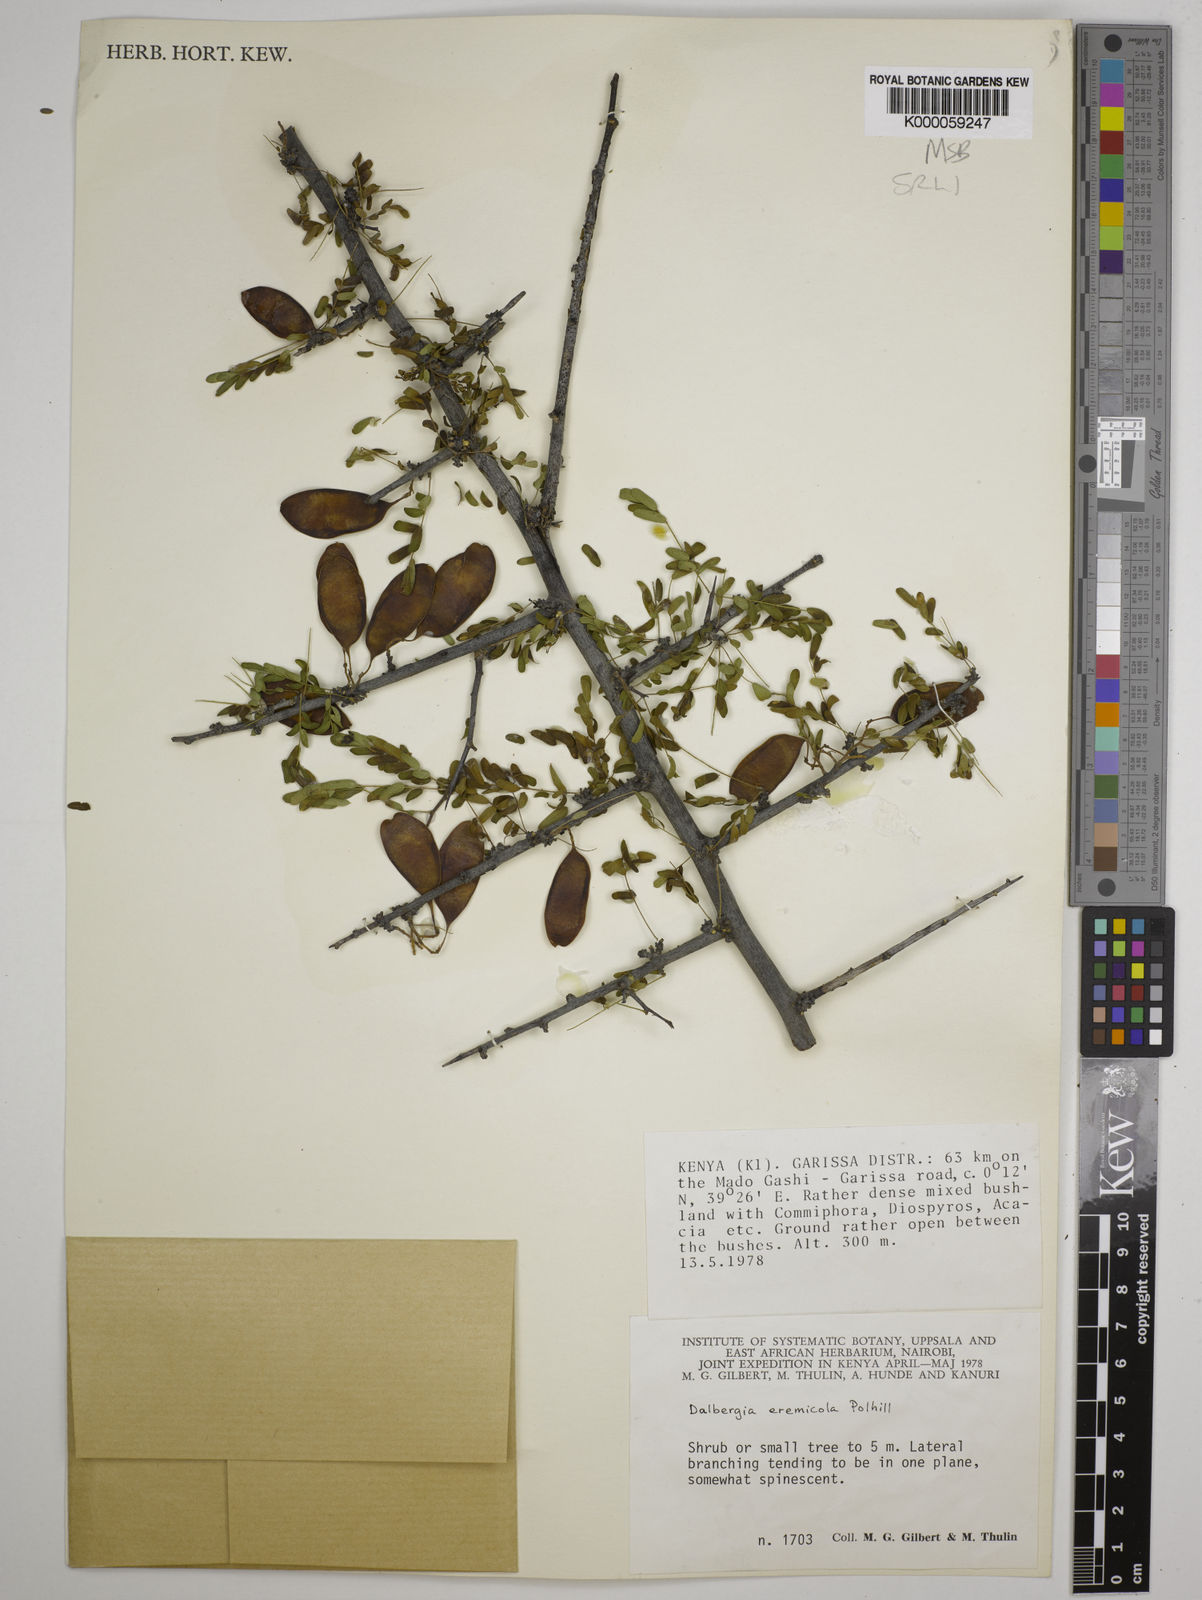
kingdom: Plantae
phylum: Tracheophyta
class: Magnoliopsida
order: Fabales
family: Fabaceae
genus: Dalbergia
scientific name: Dalbergia eremicola
